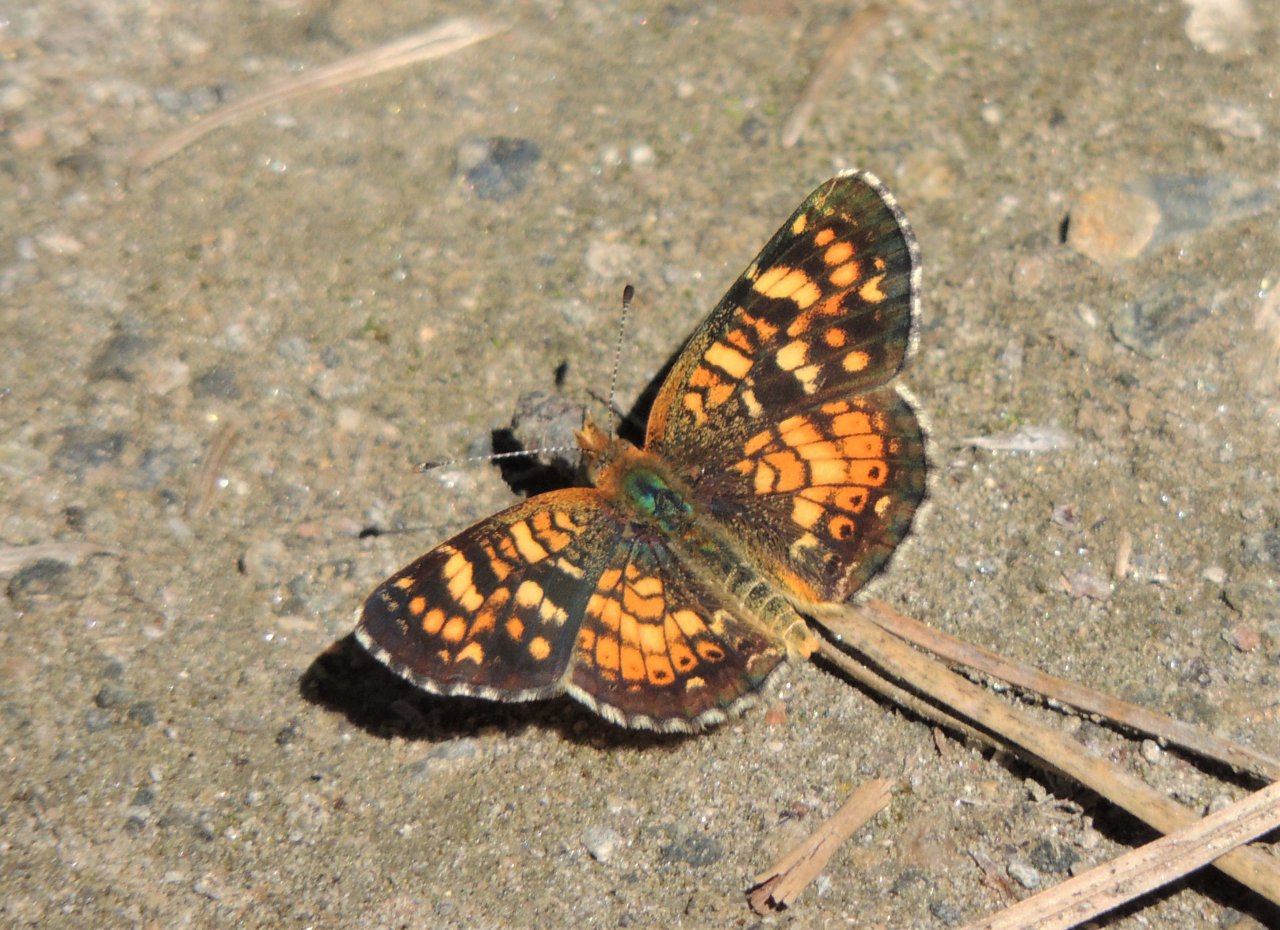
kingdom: Animalia
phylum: Arthropoda
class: Insecta
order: Lepidoptera
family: Nymphalidae
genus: Phyciodes
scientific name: Phyciodes tharos
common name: Field Crescent
